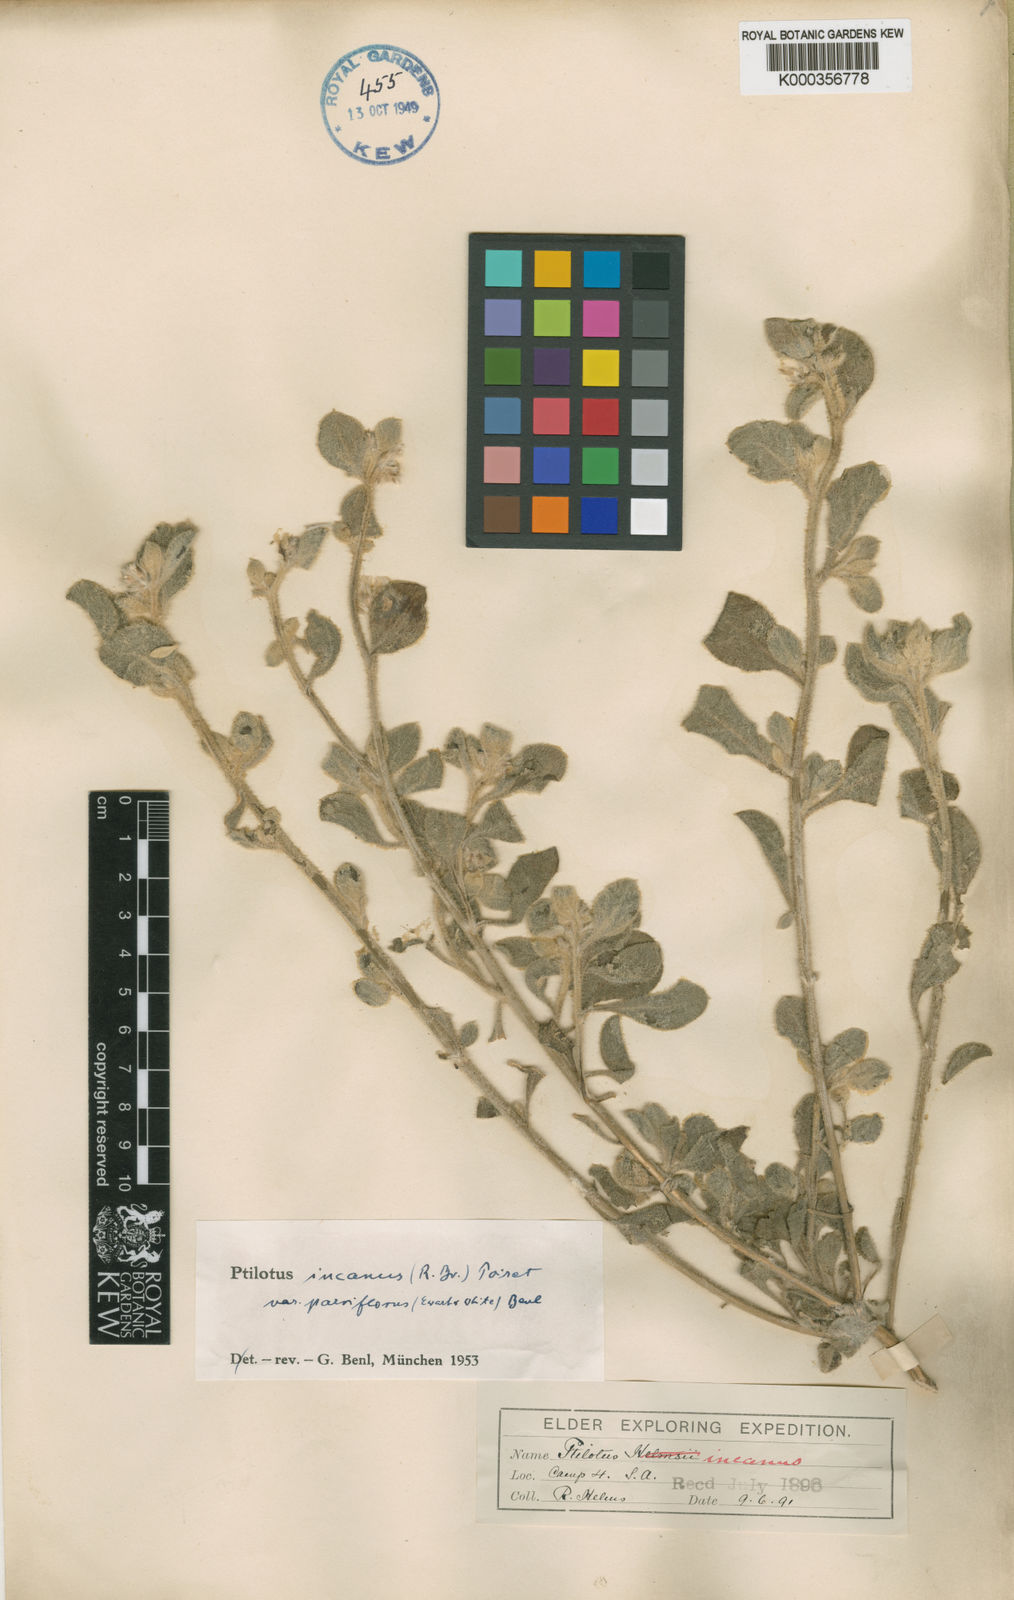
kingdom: Plantae
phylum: Tracheophyta
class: Magnoliopsida
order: Caryophyllales
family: Amaranthaceae
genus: Ptilotus
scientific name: Ptilotus
